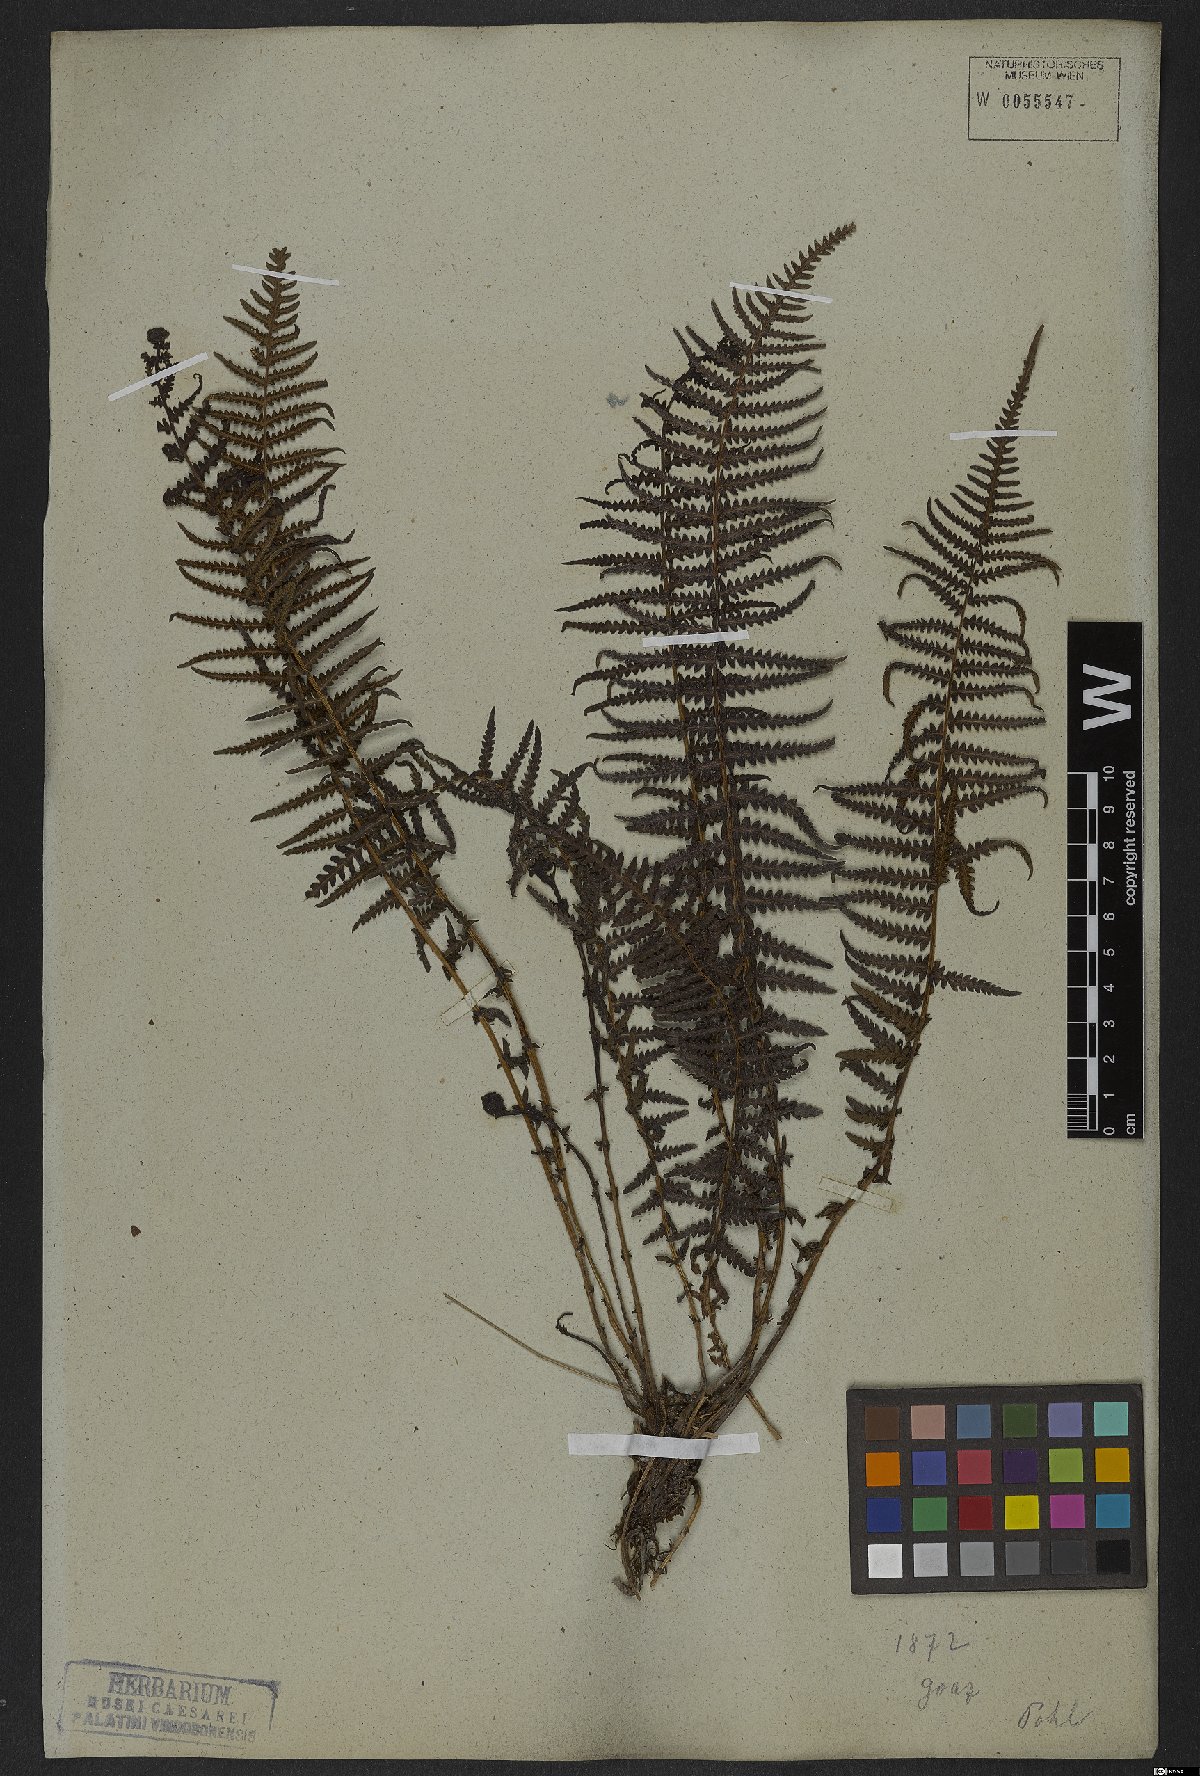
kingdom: Plantae
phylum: Tracheophyta
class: Polypodiopsida
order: Polypodiales
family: Thelypteridaceae
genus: Amauropelta
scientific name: Amauropelta opposita
